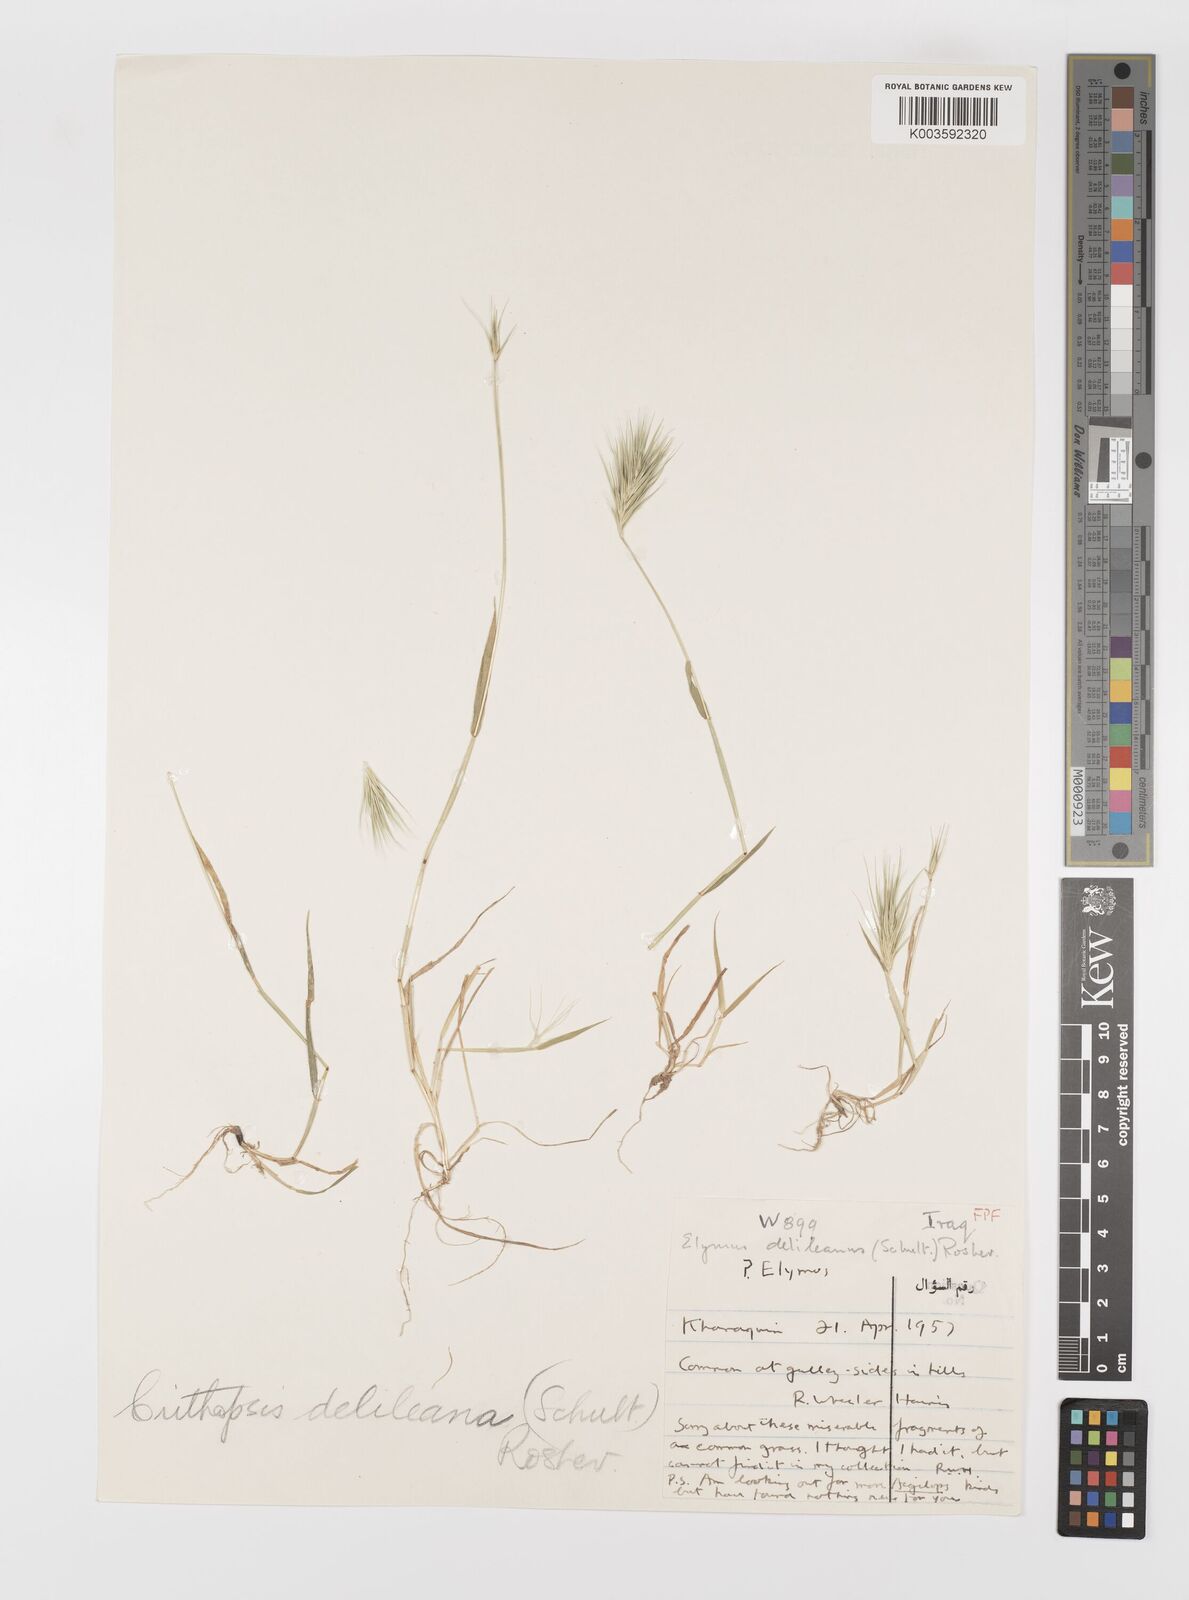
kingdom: Plantae
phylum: Tracheophyta
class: Liliopsida
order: Poales
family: Poaceae
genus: Crithopsis
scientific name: Crithopsis delileana
